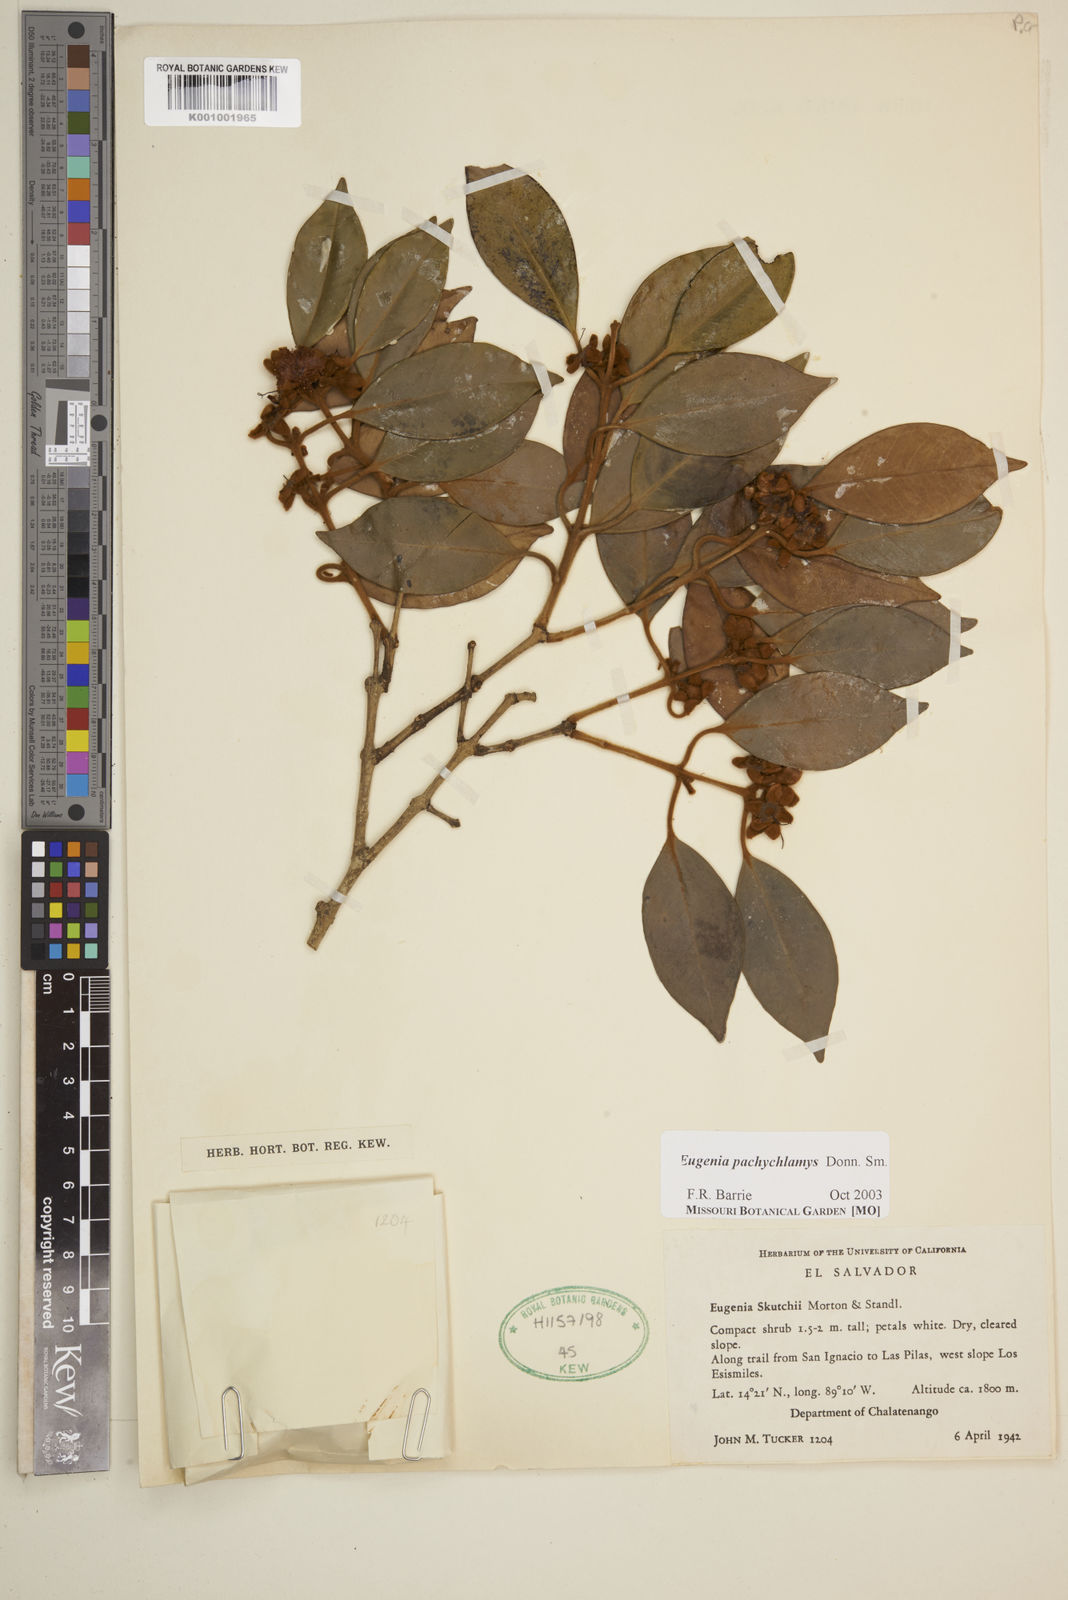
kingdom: Plantae
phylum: Tracheophyta
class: Magnoliopsida
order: Myrtales
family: Myrtaceae
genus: Eugenia
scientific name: Eugenia pachychlamys
